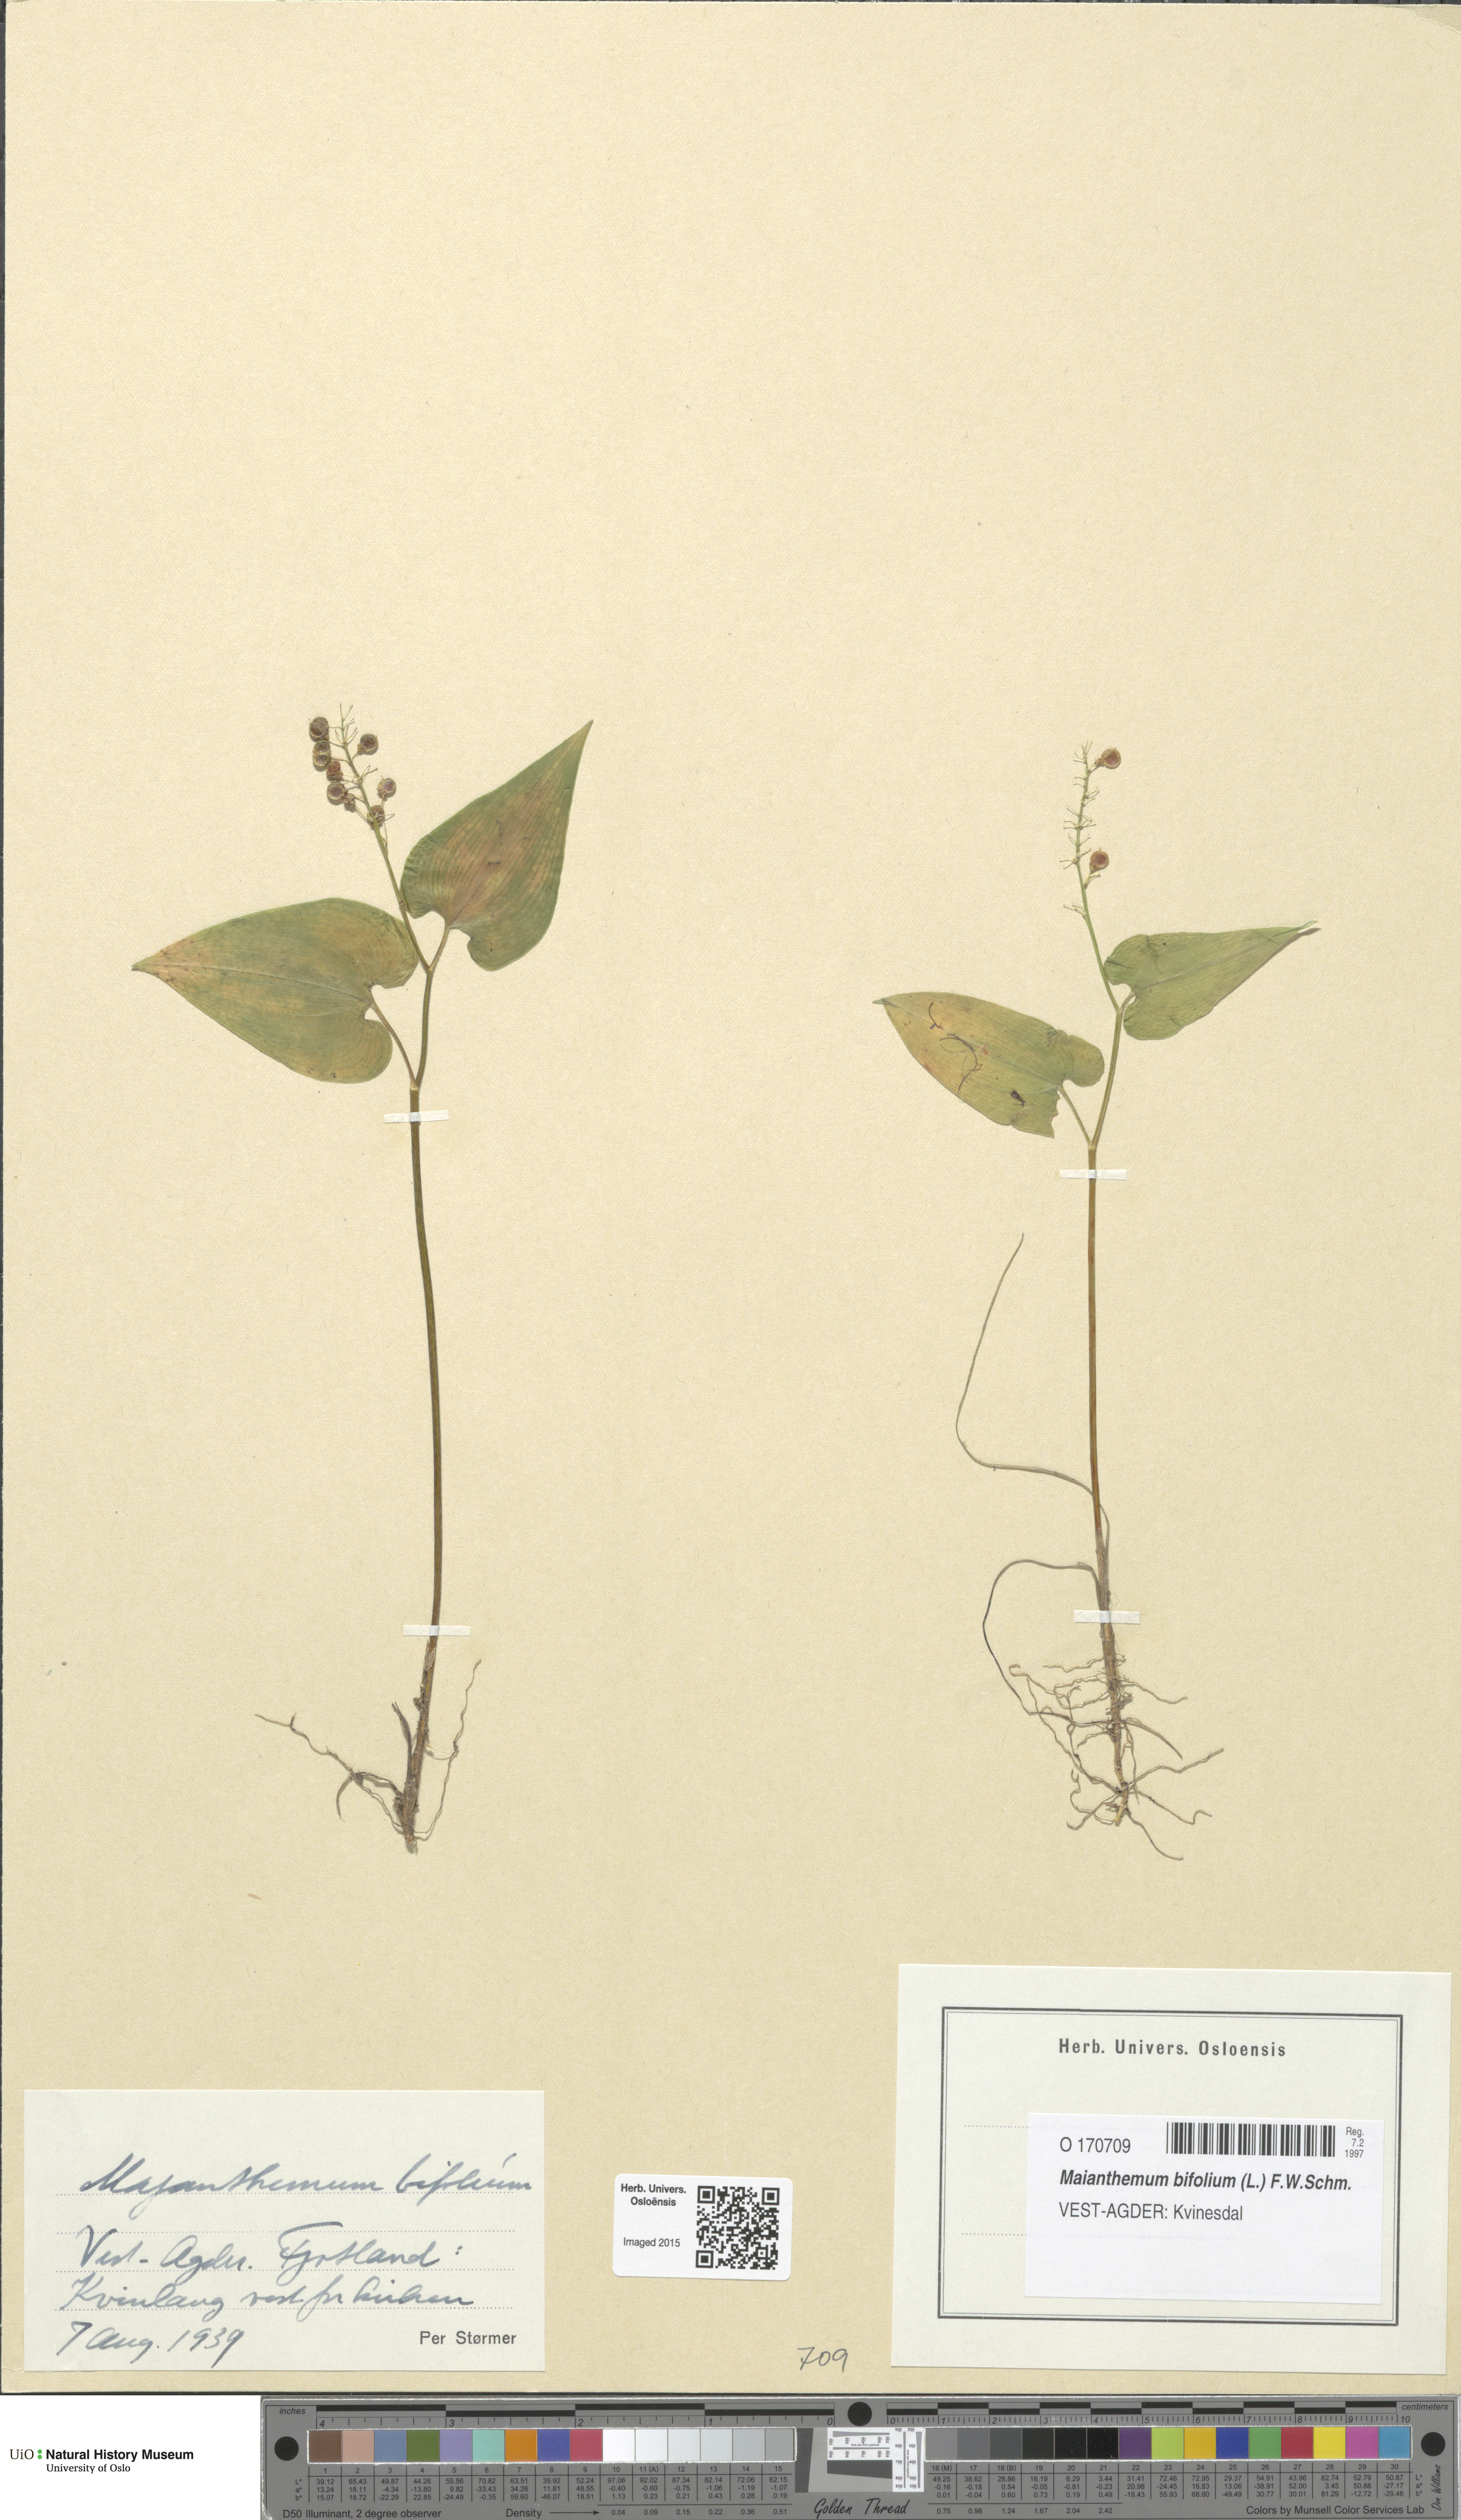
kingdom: Plantae
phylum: Tracheophyta
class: Liliopsida
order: Asparagales
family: Asparagaceae
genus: Maianthemum
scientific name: Maianthemum bifolium
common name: May lily
